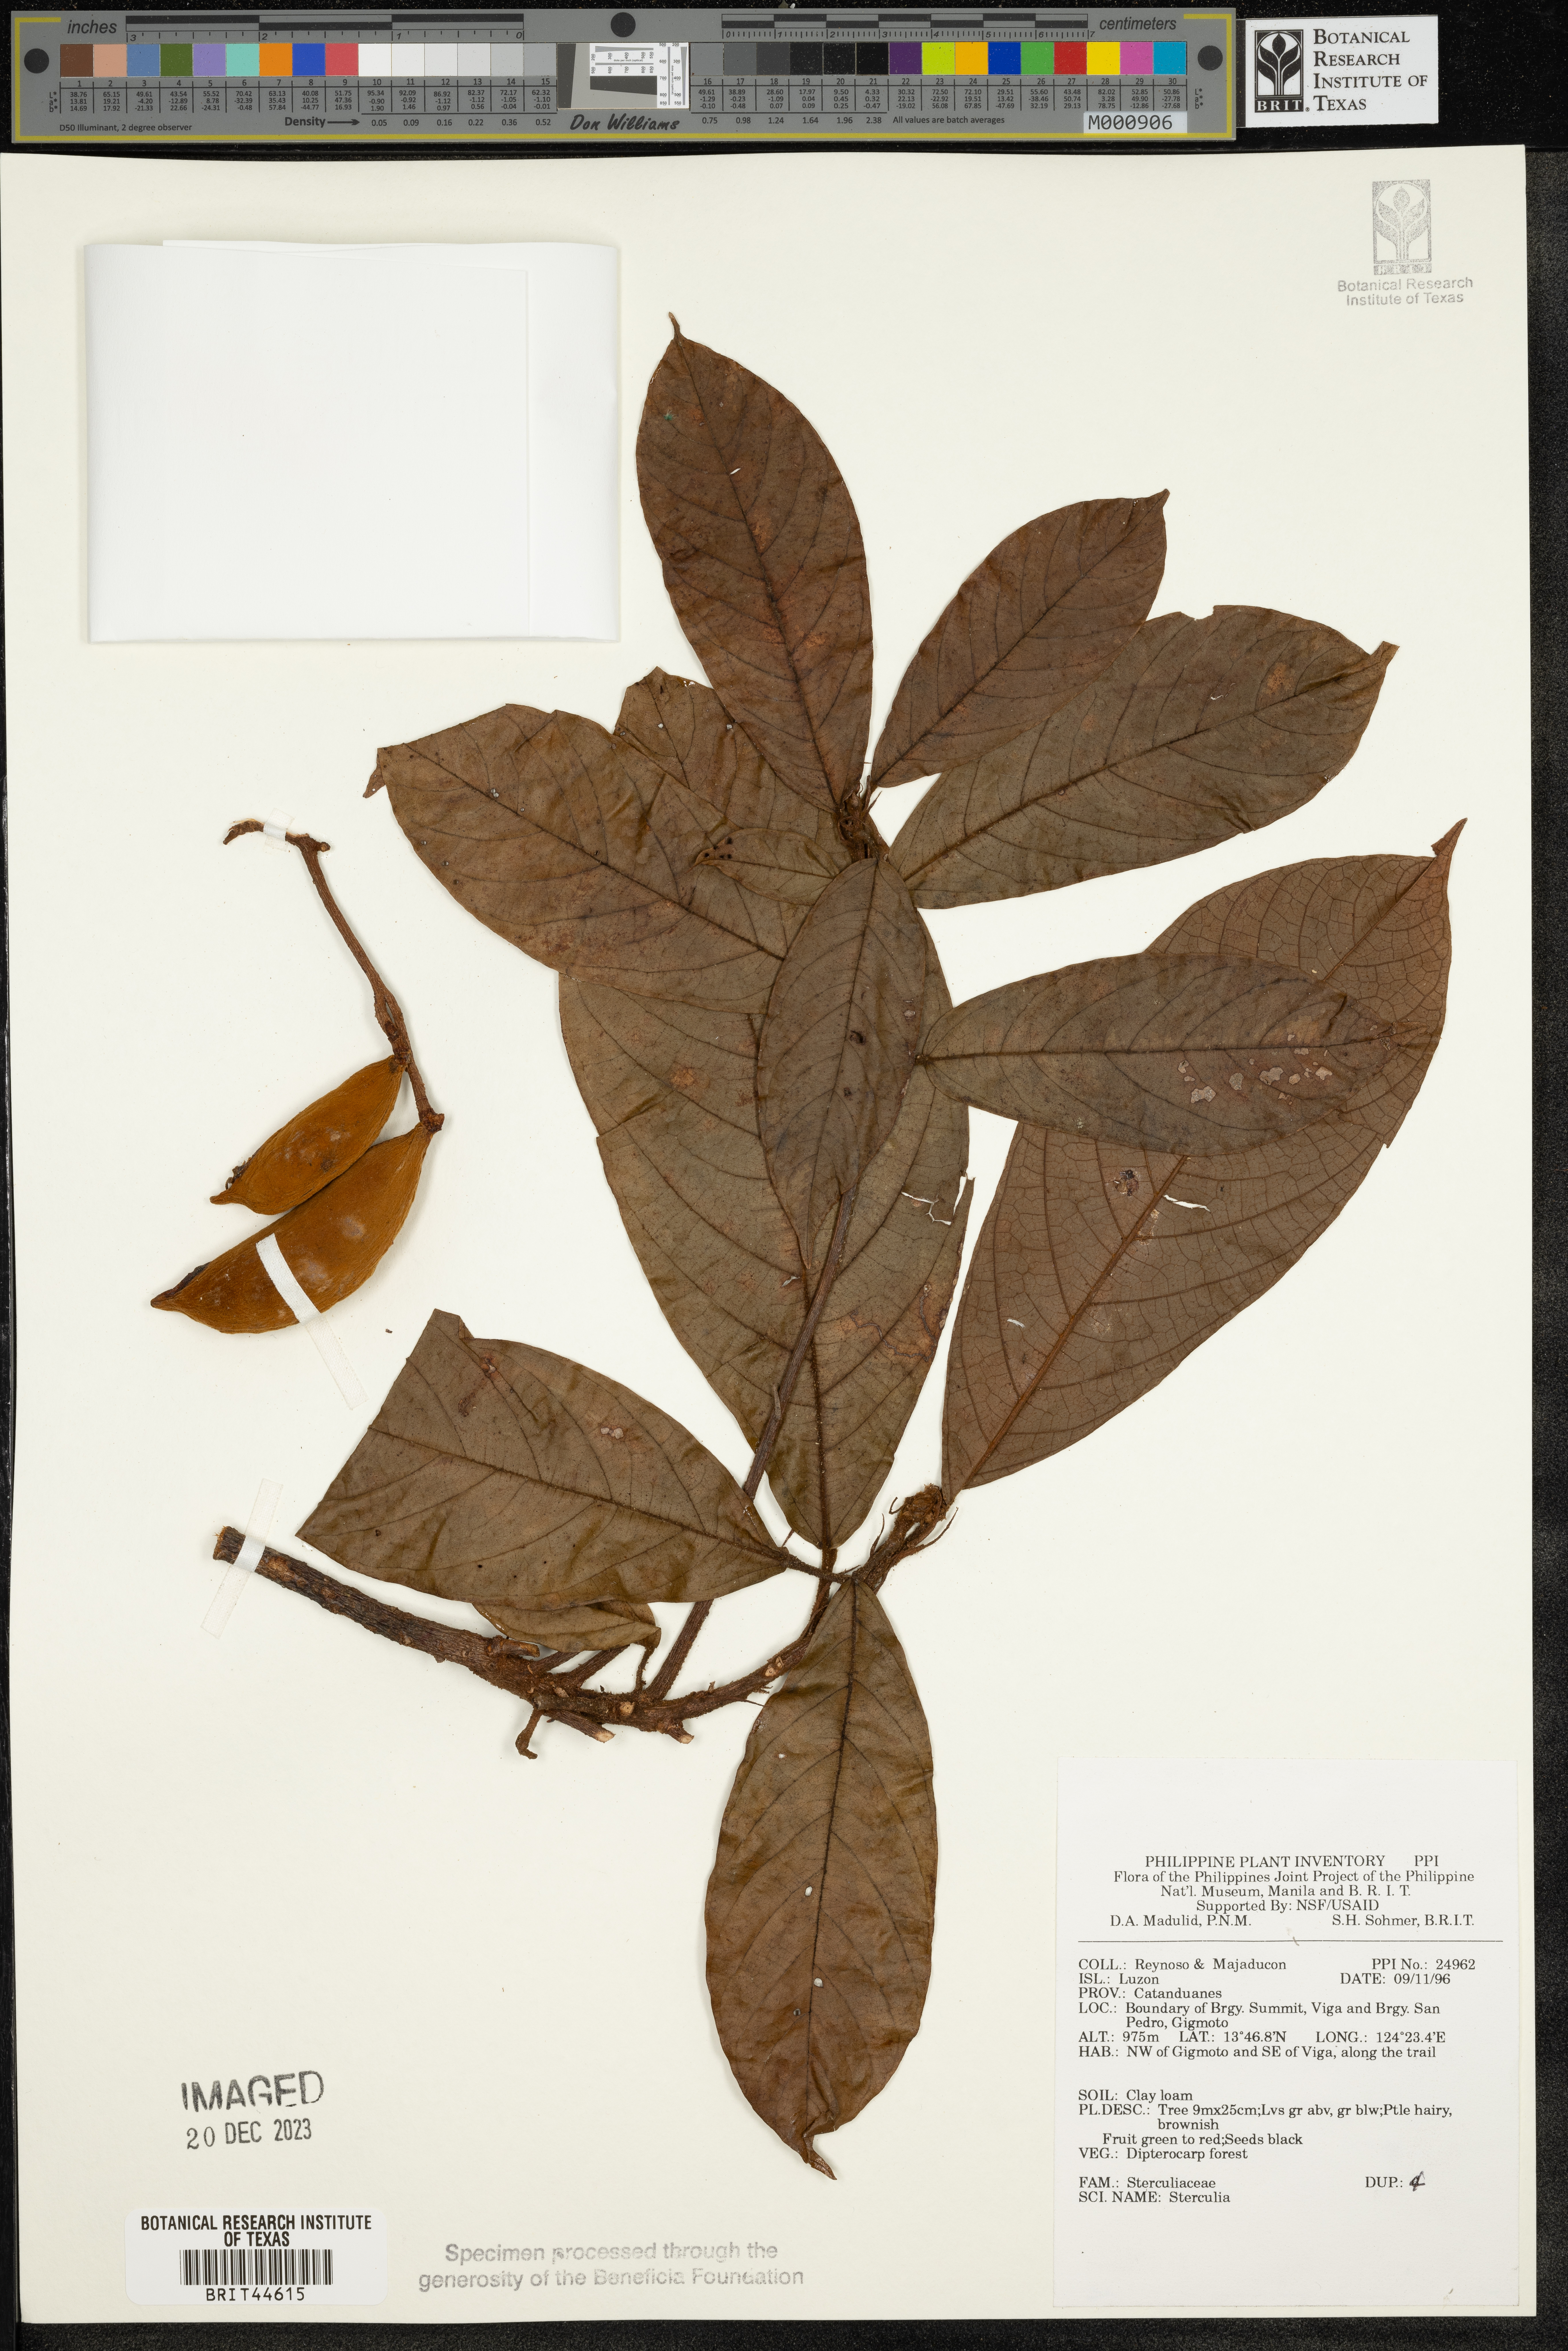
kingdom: Plantae
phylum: Tracheophyta
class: Magnoliopsida
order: Malvales
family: Malvaceae
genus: Sterculia
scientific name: Sterculia
